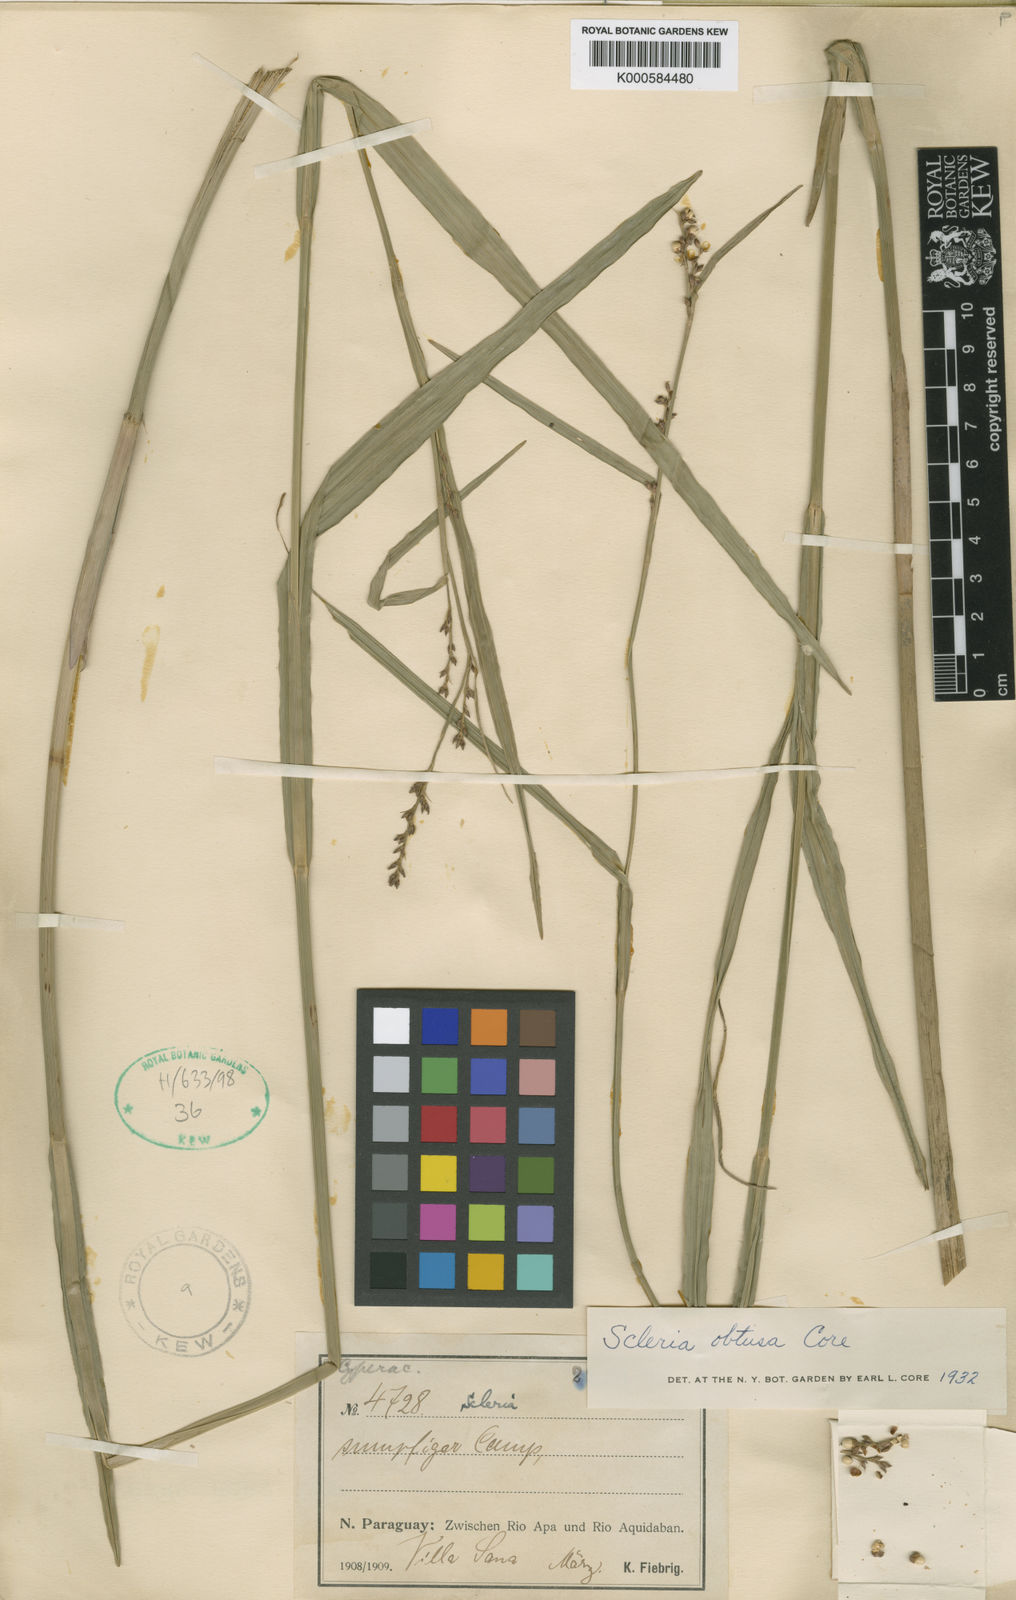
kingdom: Plantae
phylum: Tracheophyta
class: Liliopsida
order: Poales
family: Cyperaceae
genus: Scleria
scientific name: Scleria obtusa
